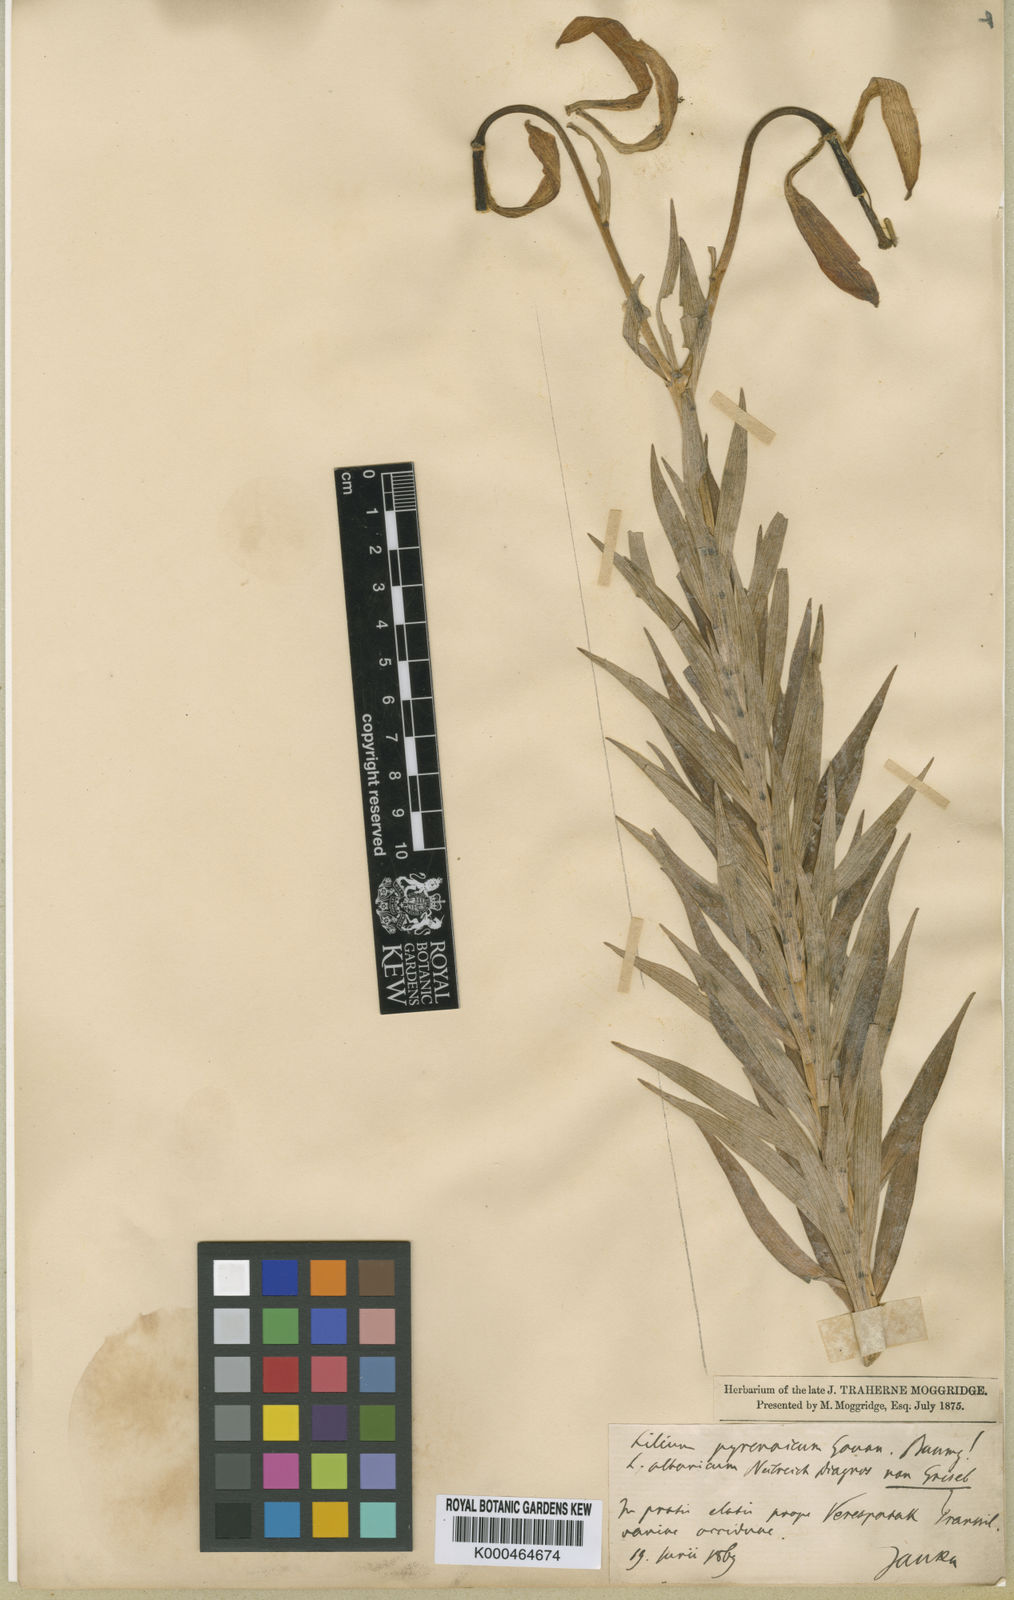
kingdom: Plantae
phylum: Tracheophyta
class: Liliopsida
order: Liliales
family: Liliaceae
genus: Lilium
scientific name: Lilium jankae
